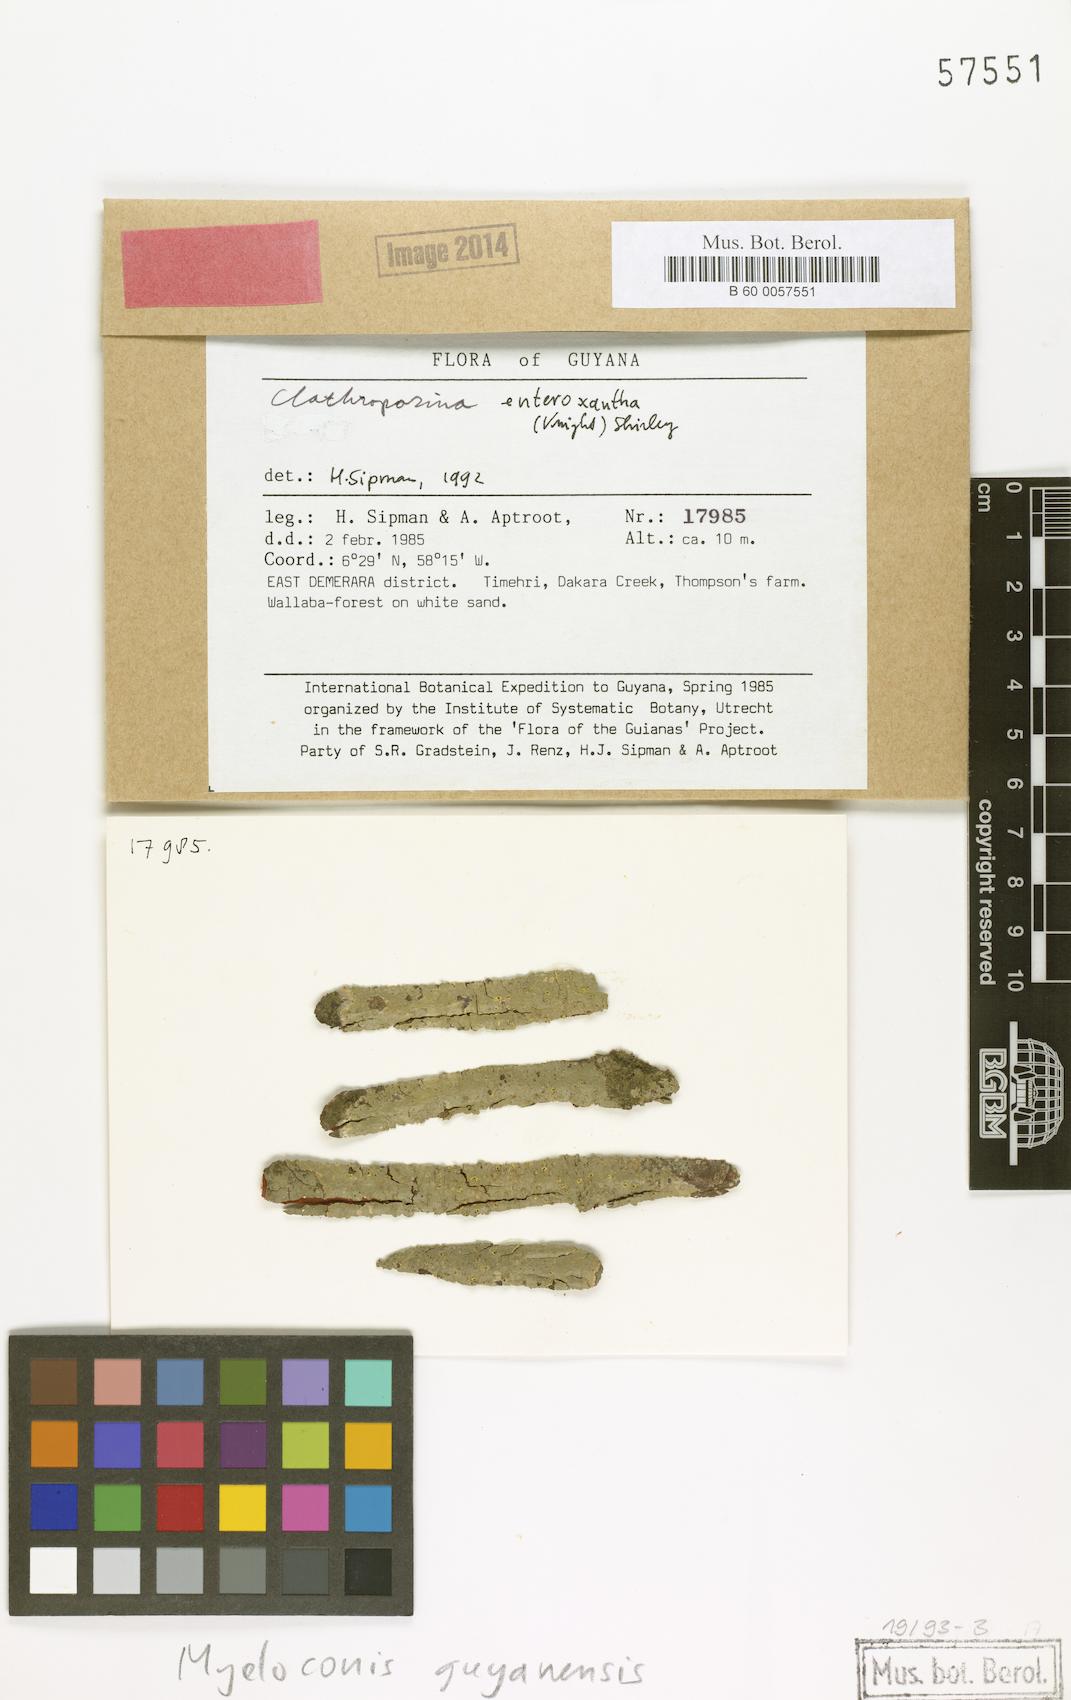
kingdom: Fungi
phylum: Ascomycota
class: Lecanoromycetes
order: Ostropales
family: Porinaceae
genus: Myeloconis
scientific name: Myeloconis guyanensis
